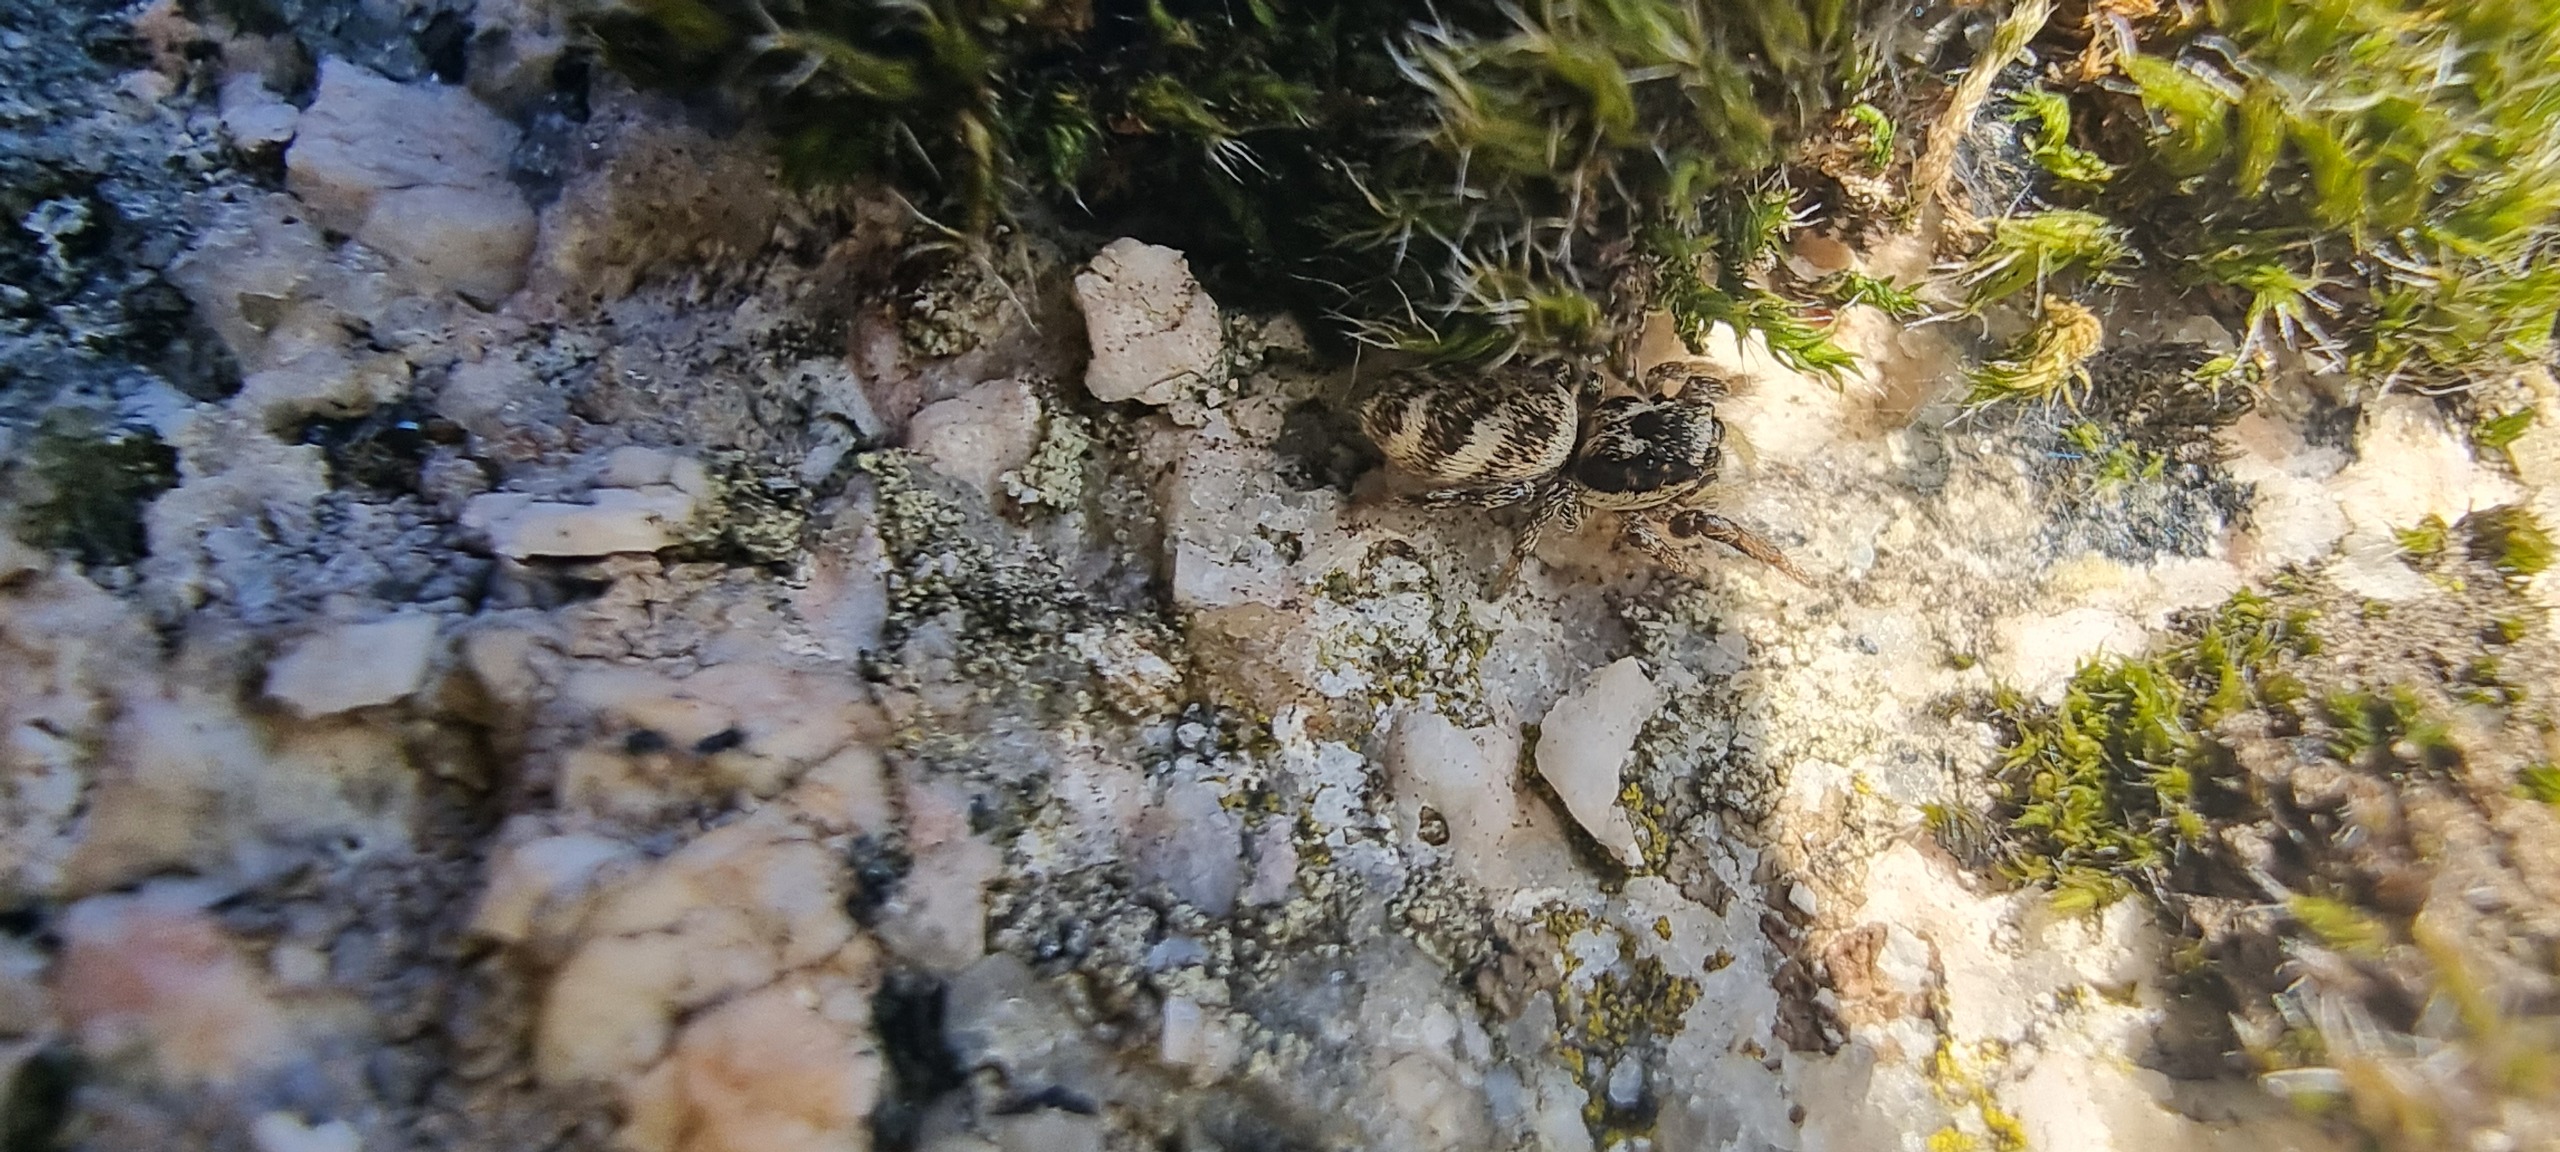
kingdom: Animalia
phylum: Arthropoda
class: Arachnida
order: Araneae
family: Salticidae
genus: Salticus
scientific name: Salticus
